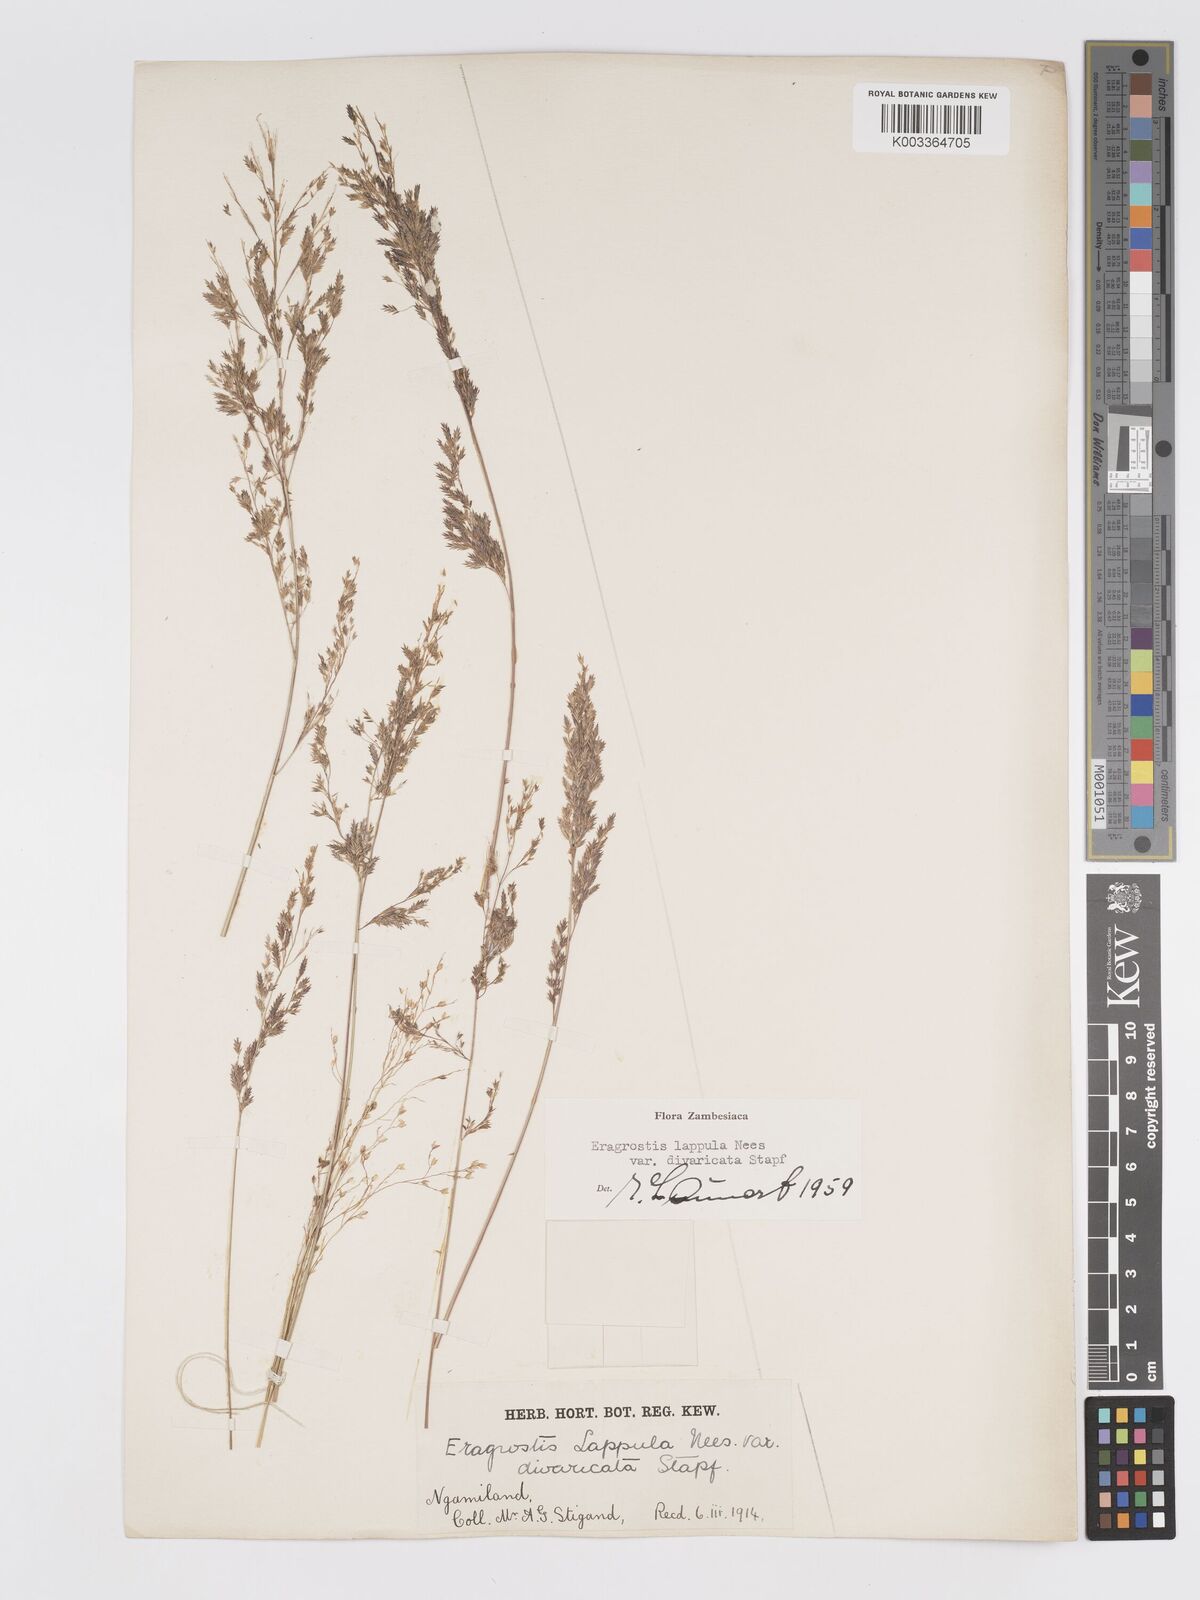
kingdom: Plantae
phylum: Tracheophyta
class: Liliopsida
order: Poales
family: Poaceae
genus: Eragrostis
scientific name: Eragrostis lappula
